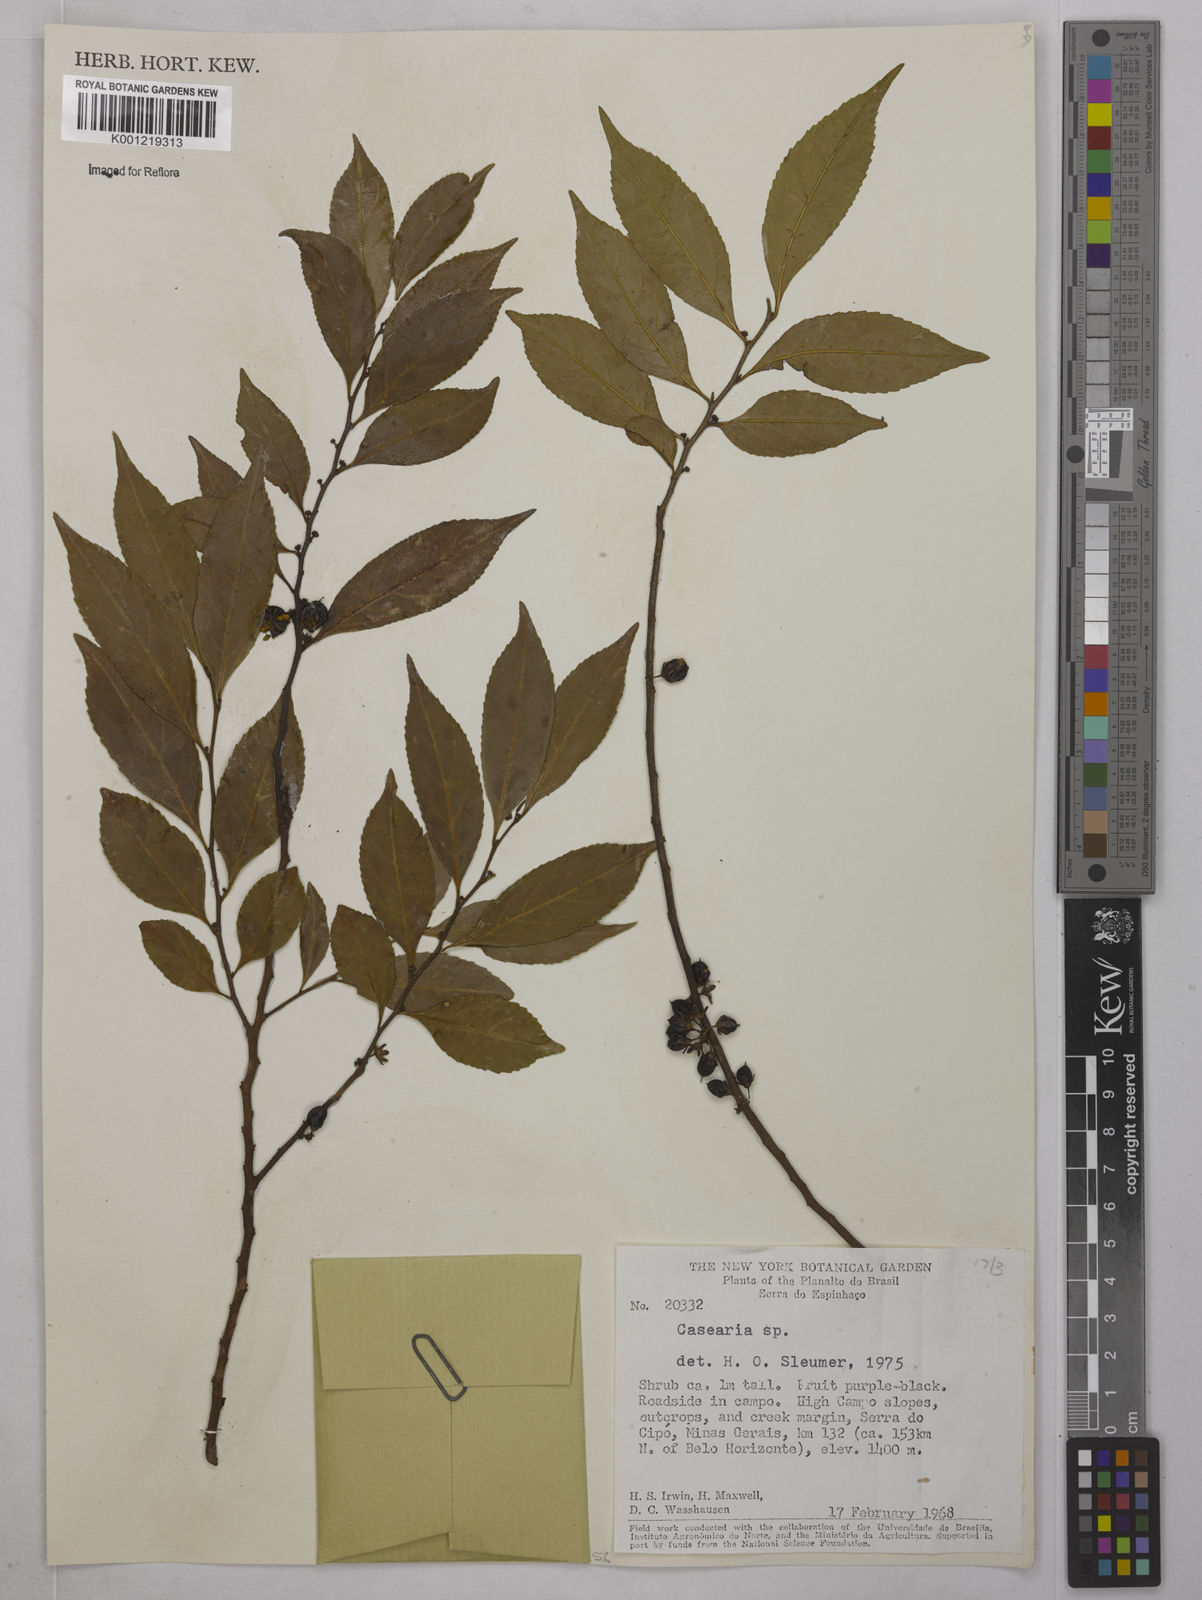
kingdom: Plantae
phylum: Tracheophyta
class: Magnoliopsida
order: Malpighiales
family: Salicaceae
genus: Casearia
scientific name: Casearia
